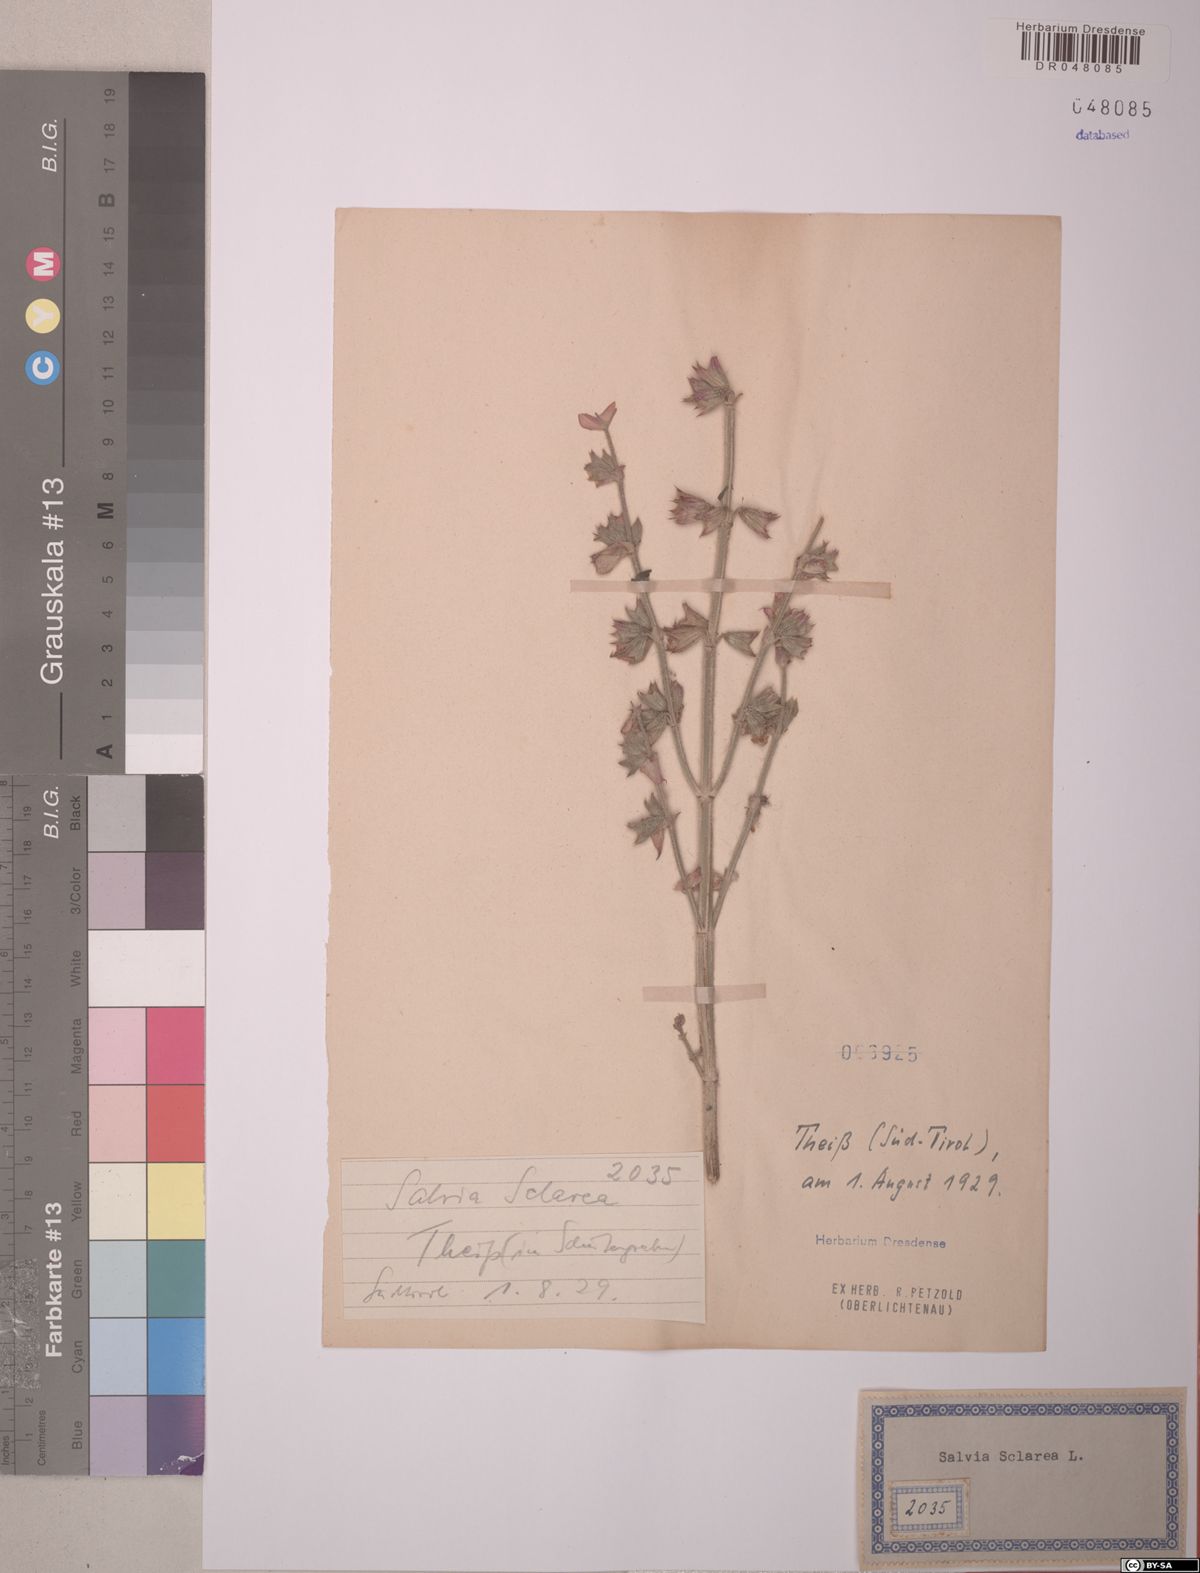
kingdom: Plantae
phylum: Tracheophyta
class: Magnoliopsida
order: Lamiales
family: Lamiaceae
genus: Salvia
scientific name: Salvia sclarea
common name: Clary
